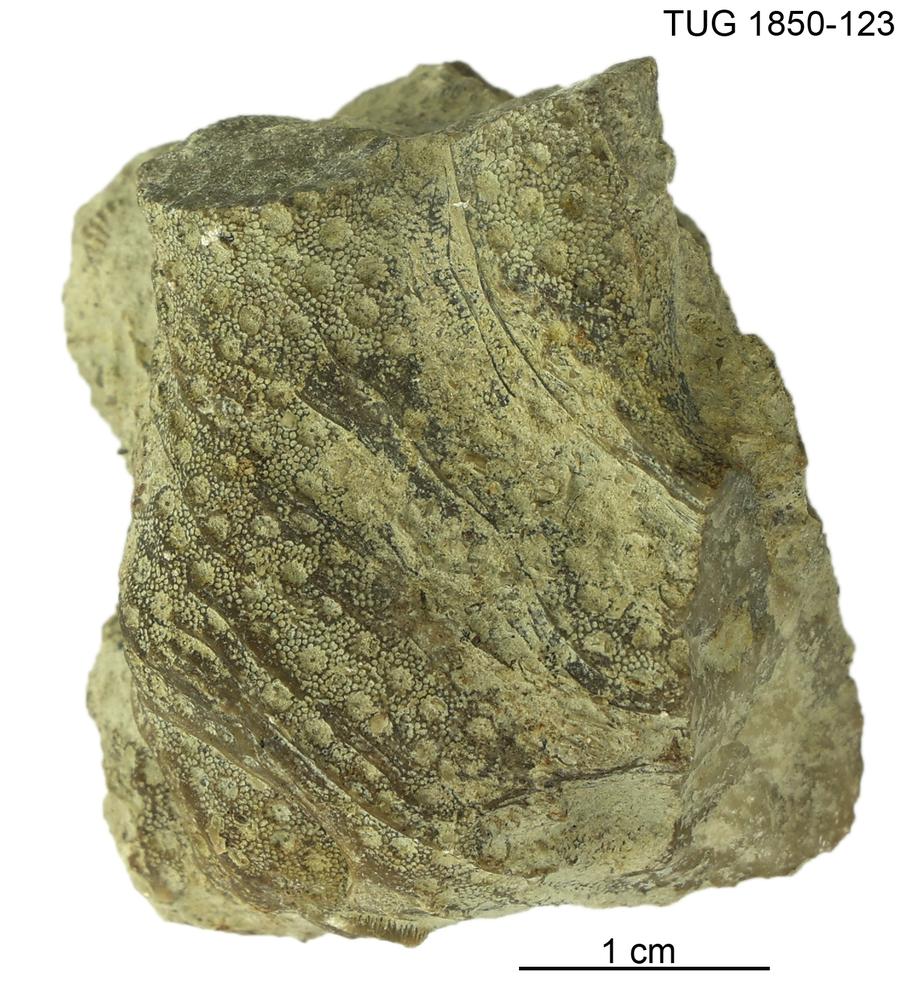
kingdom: Animalia
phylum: Cnidaria
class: Anthozoa
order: Heliolitina
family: Heliolitidae
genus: Heliolites
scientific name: Heliolites
